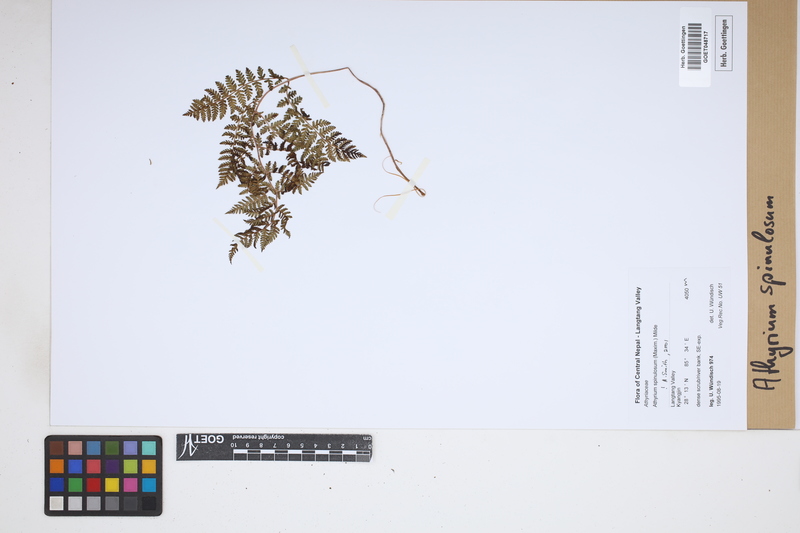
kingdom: Plantae
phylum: Tracheophyta
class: Polypodiopsida
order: Polypodiales
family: Athyriaceae
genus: Athyrium
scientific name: Athyrium spinulosum
